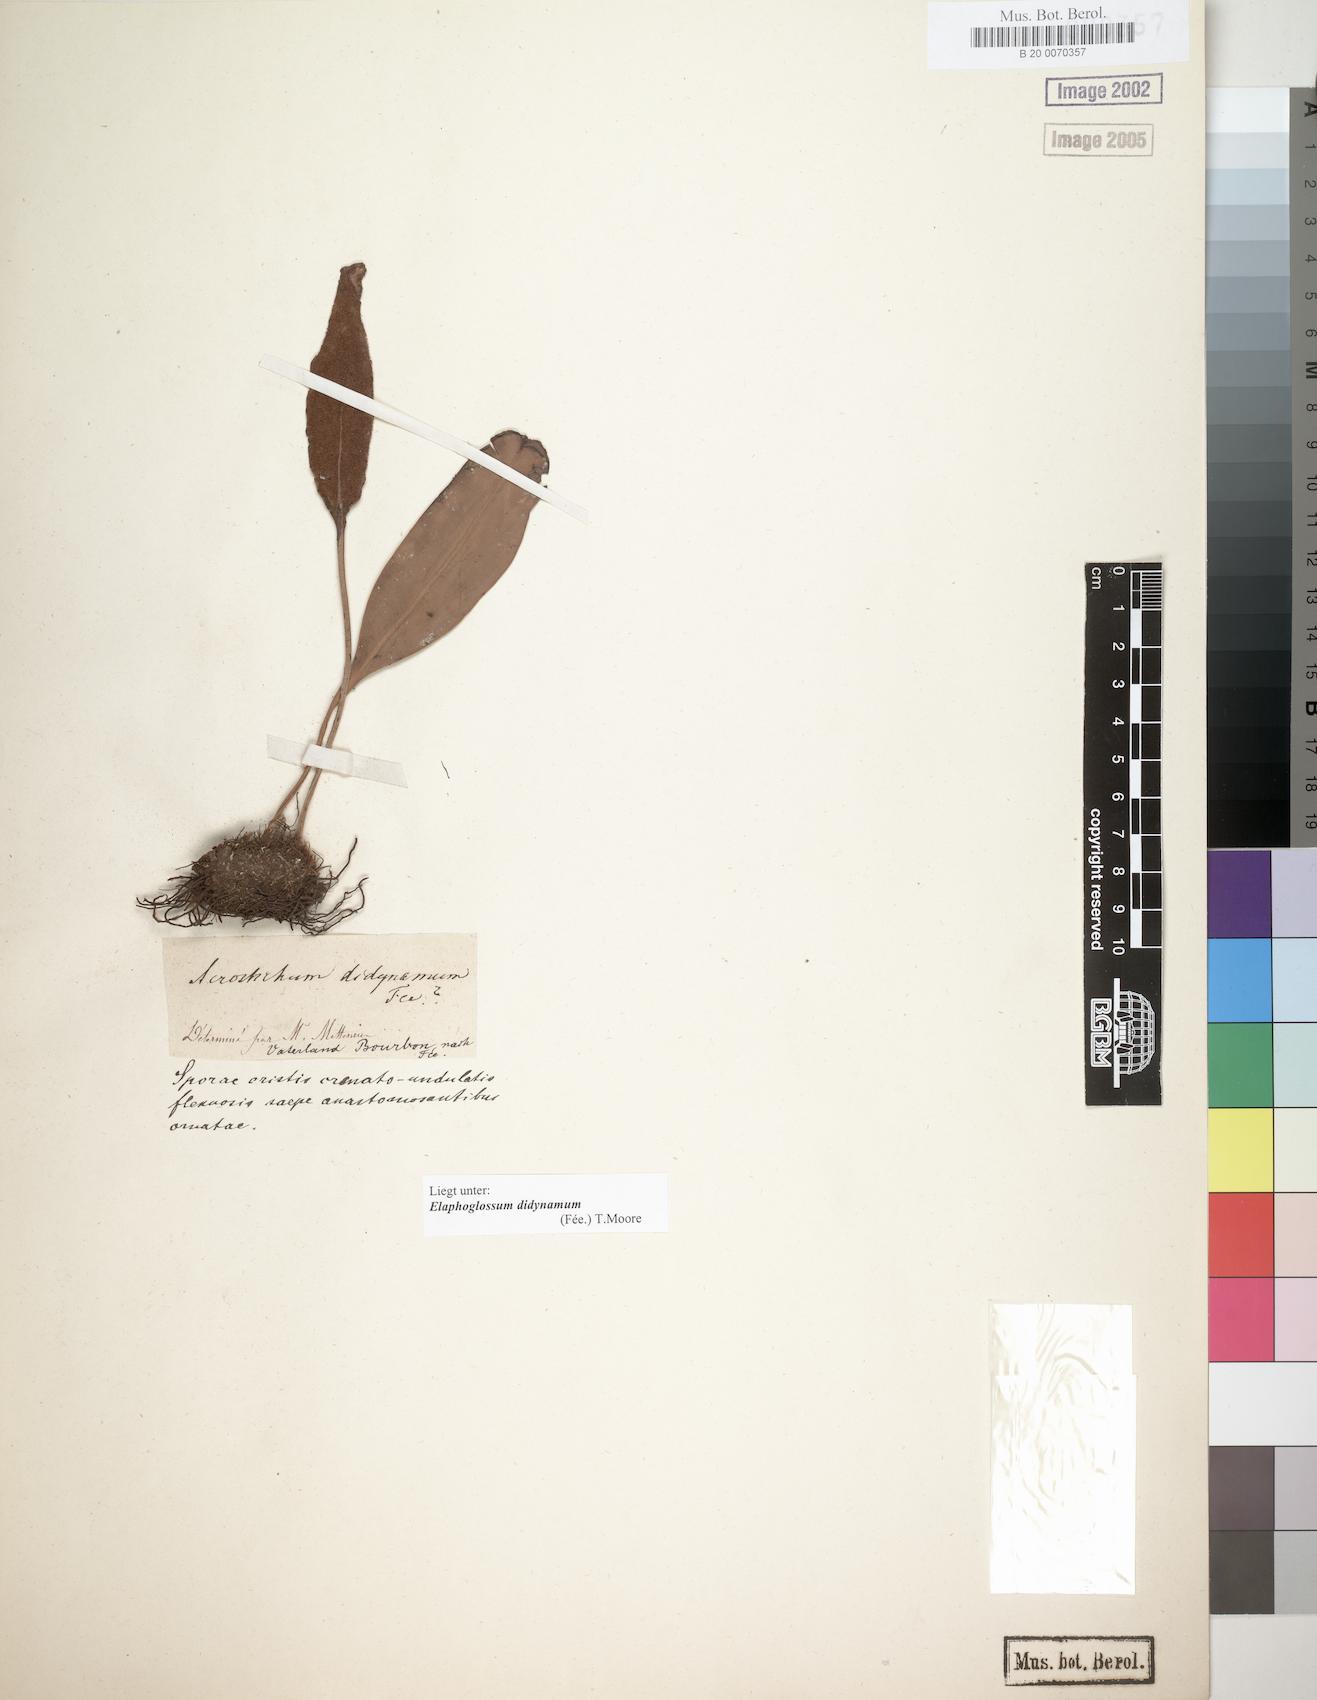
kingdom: Plantae
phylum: Tracheophyta
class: Polypodiopsida
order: Polypodiales
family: Dryopteridaceae
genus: Elaphoglossum
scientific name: Elaphoglossum lepervanchii
